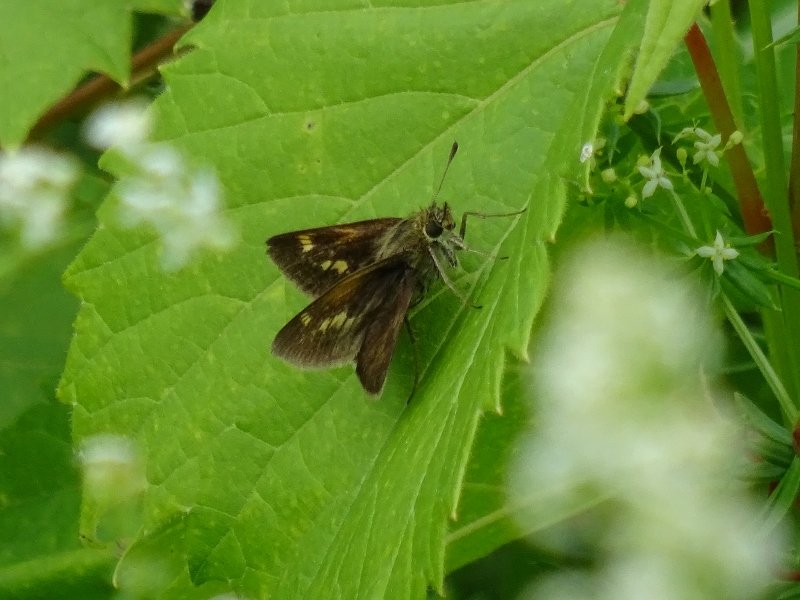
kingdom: Animalia
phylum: Arthropoda
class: Insecta
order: Lepidoptera
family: Hesperiidae
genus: Polites
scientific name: Polites
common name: Crossline Skipper
